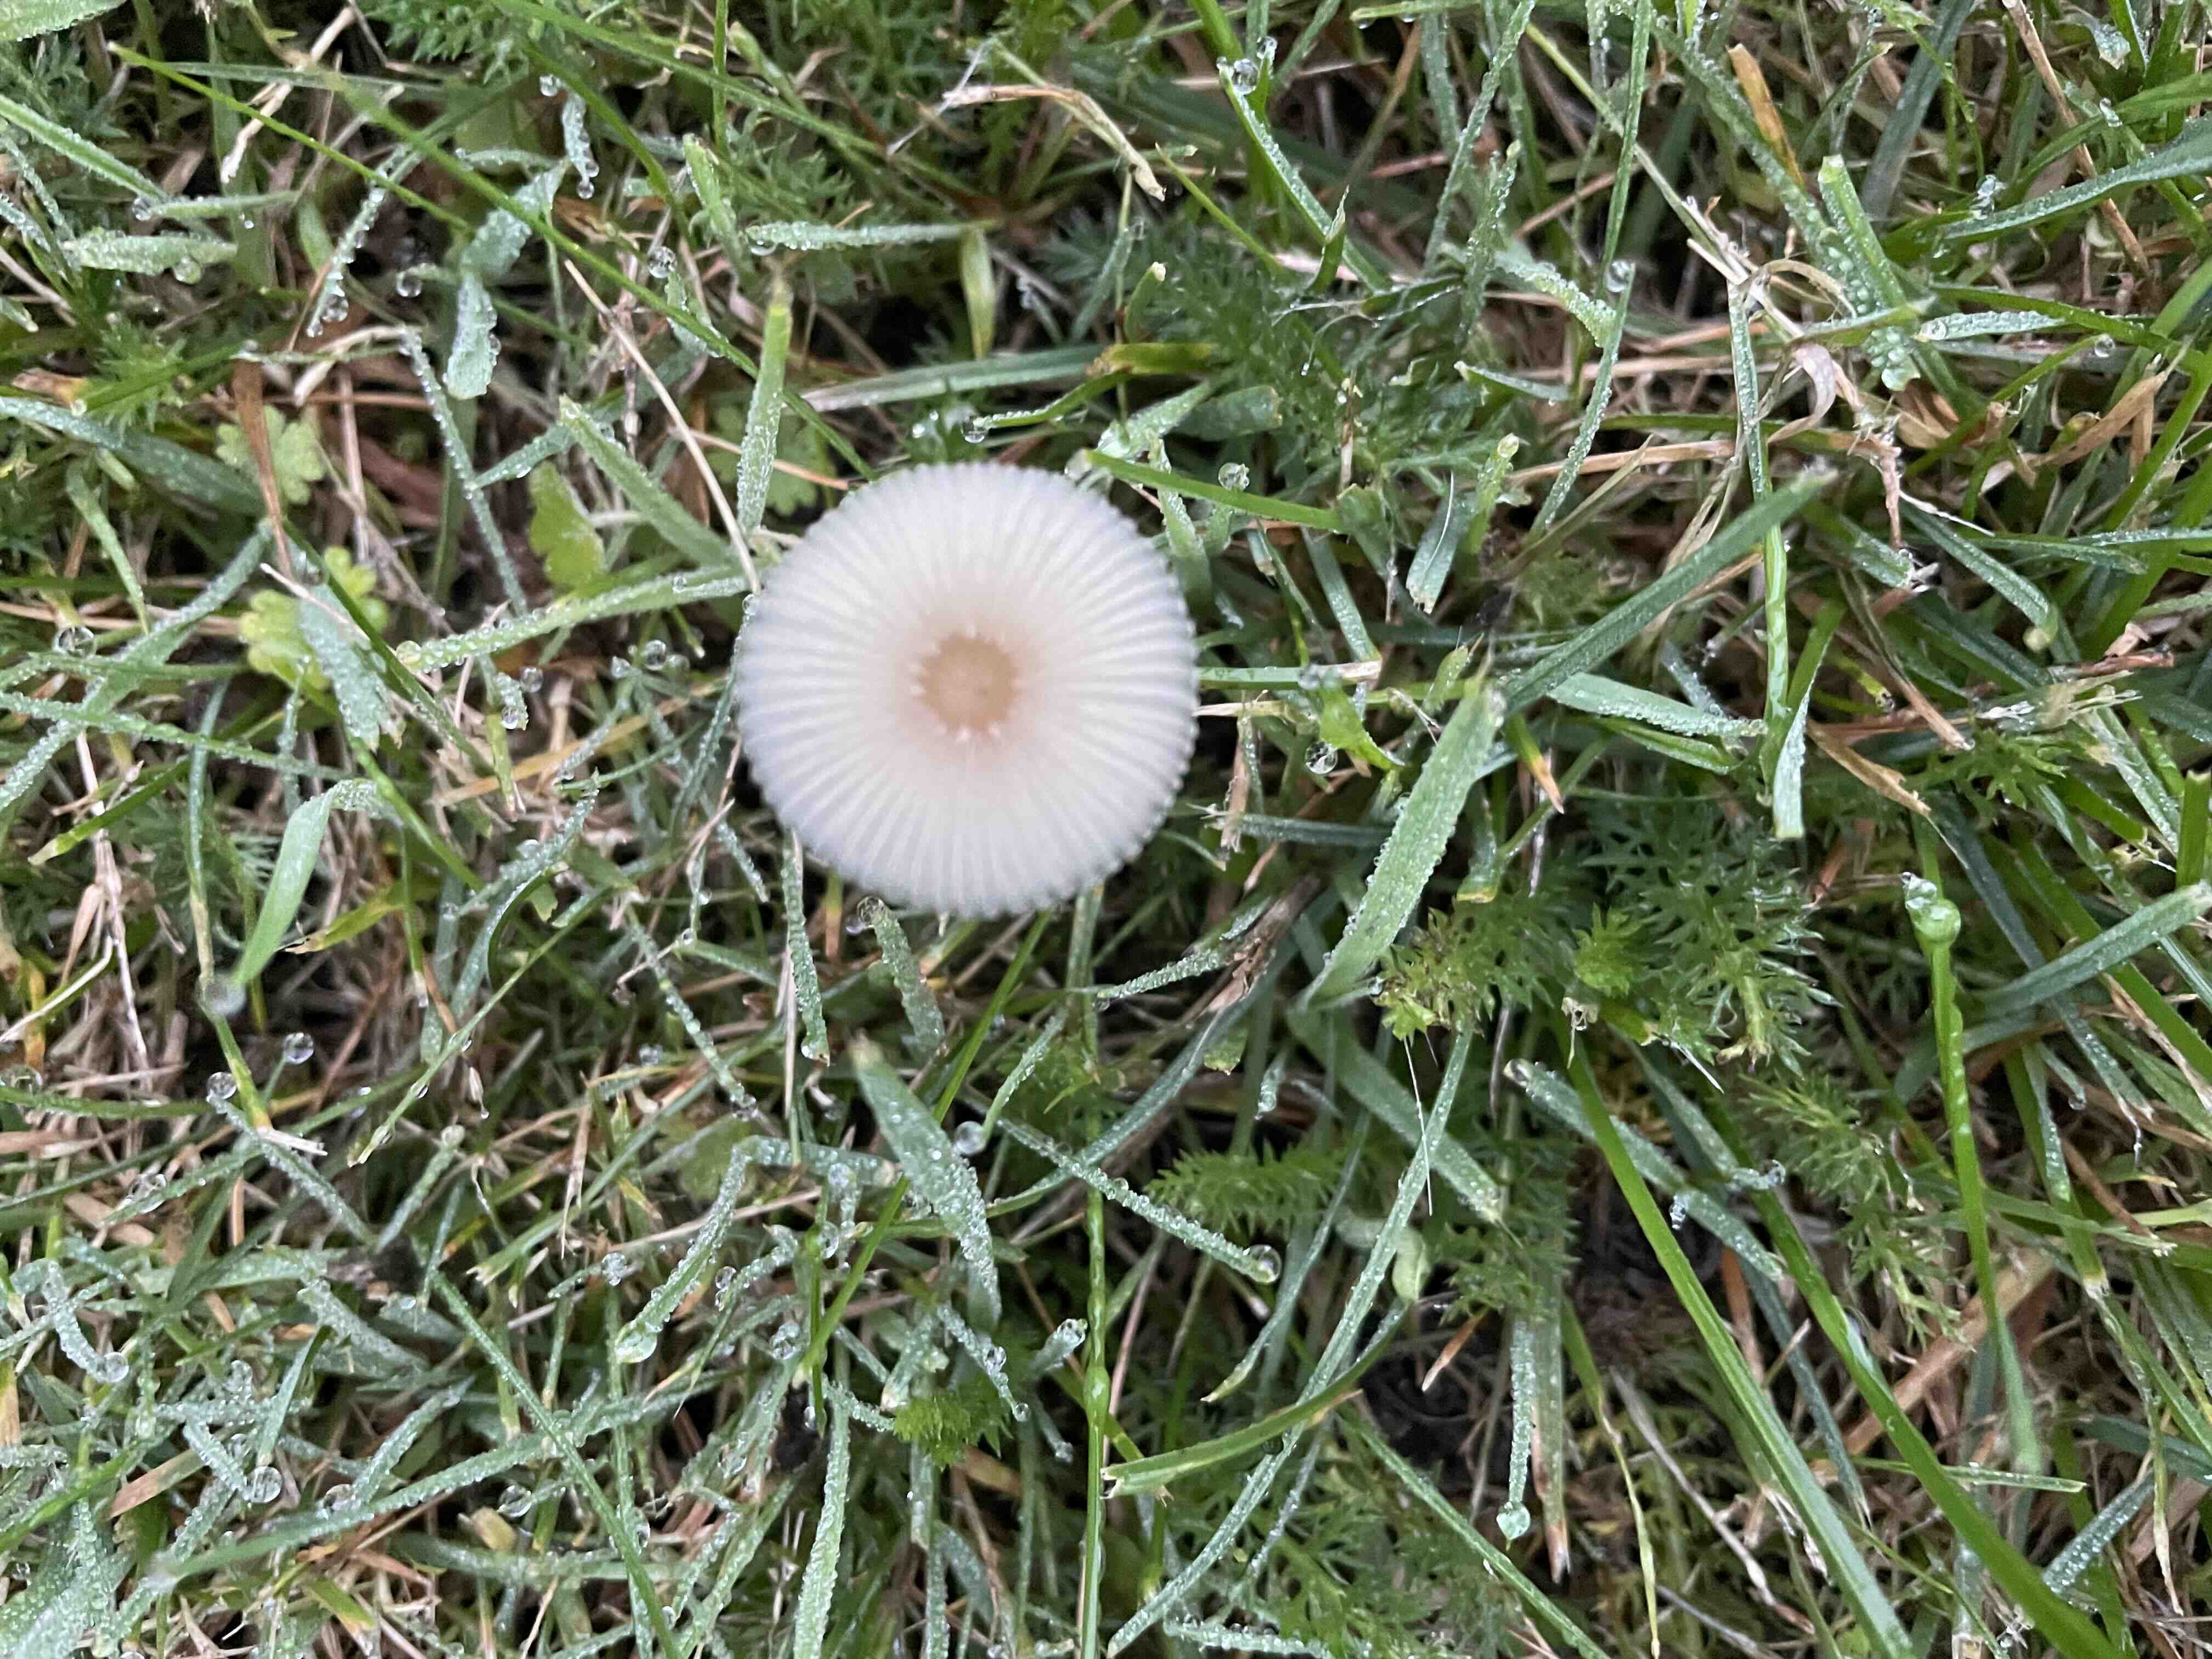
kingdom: Fungi
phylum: Basidiomycota
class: Agaricomycetes
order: Agaricales
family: Psathyrellaceae
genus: Parasola
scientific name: Parasola
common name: hjulhat
